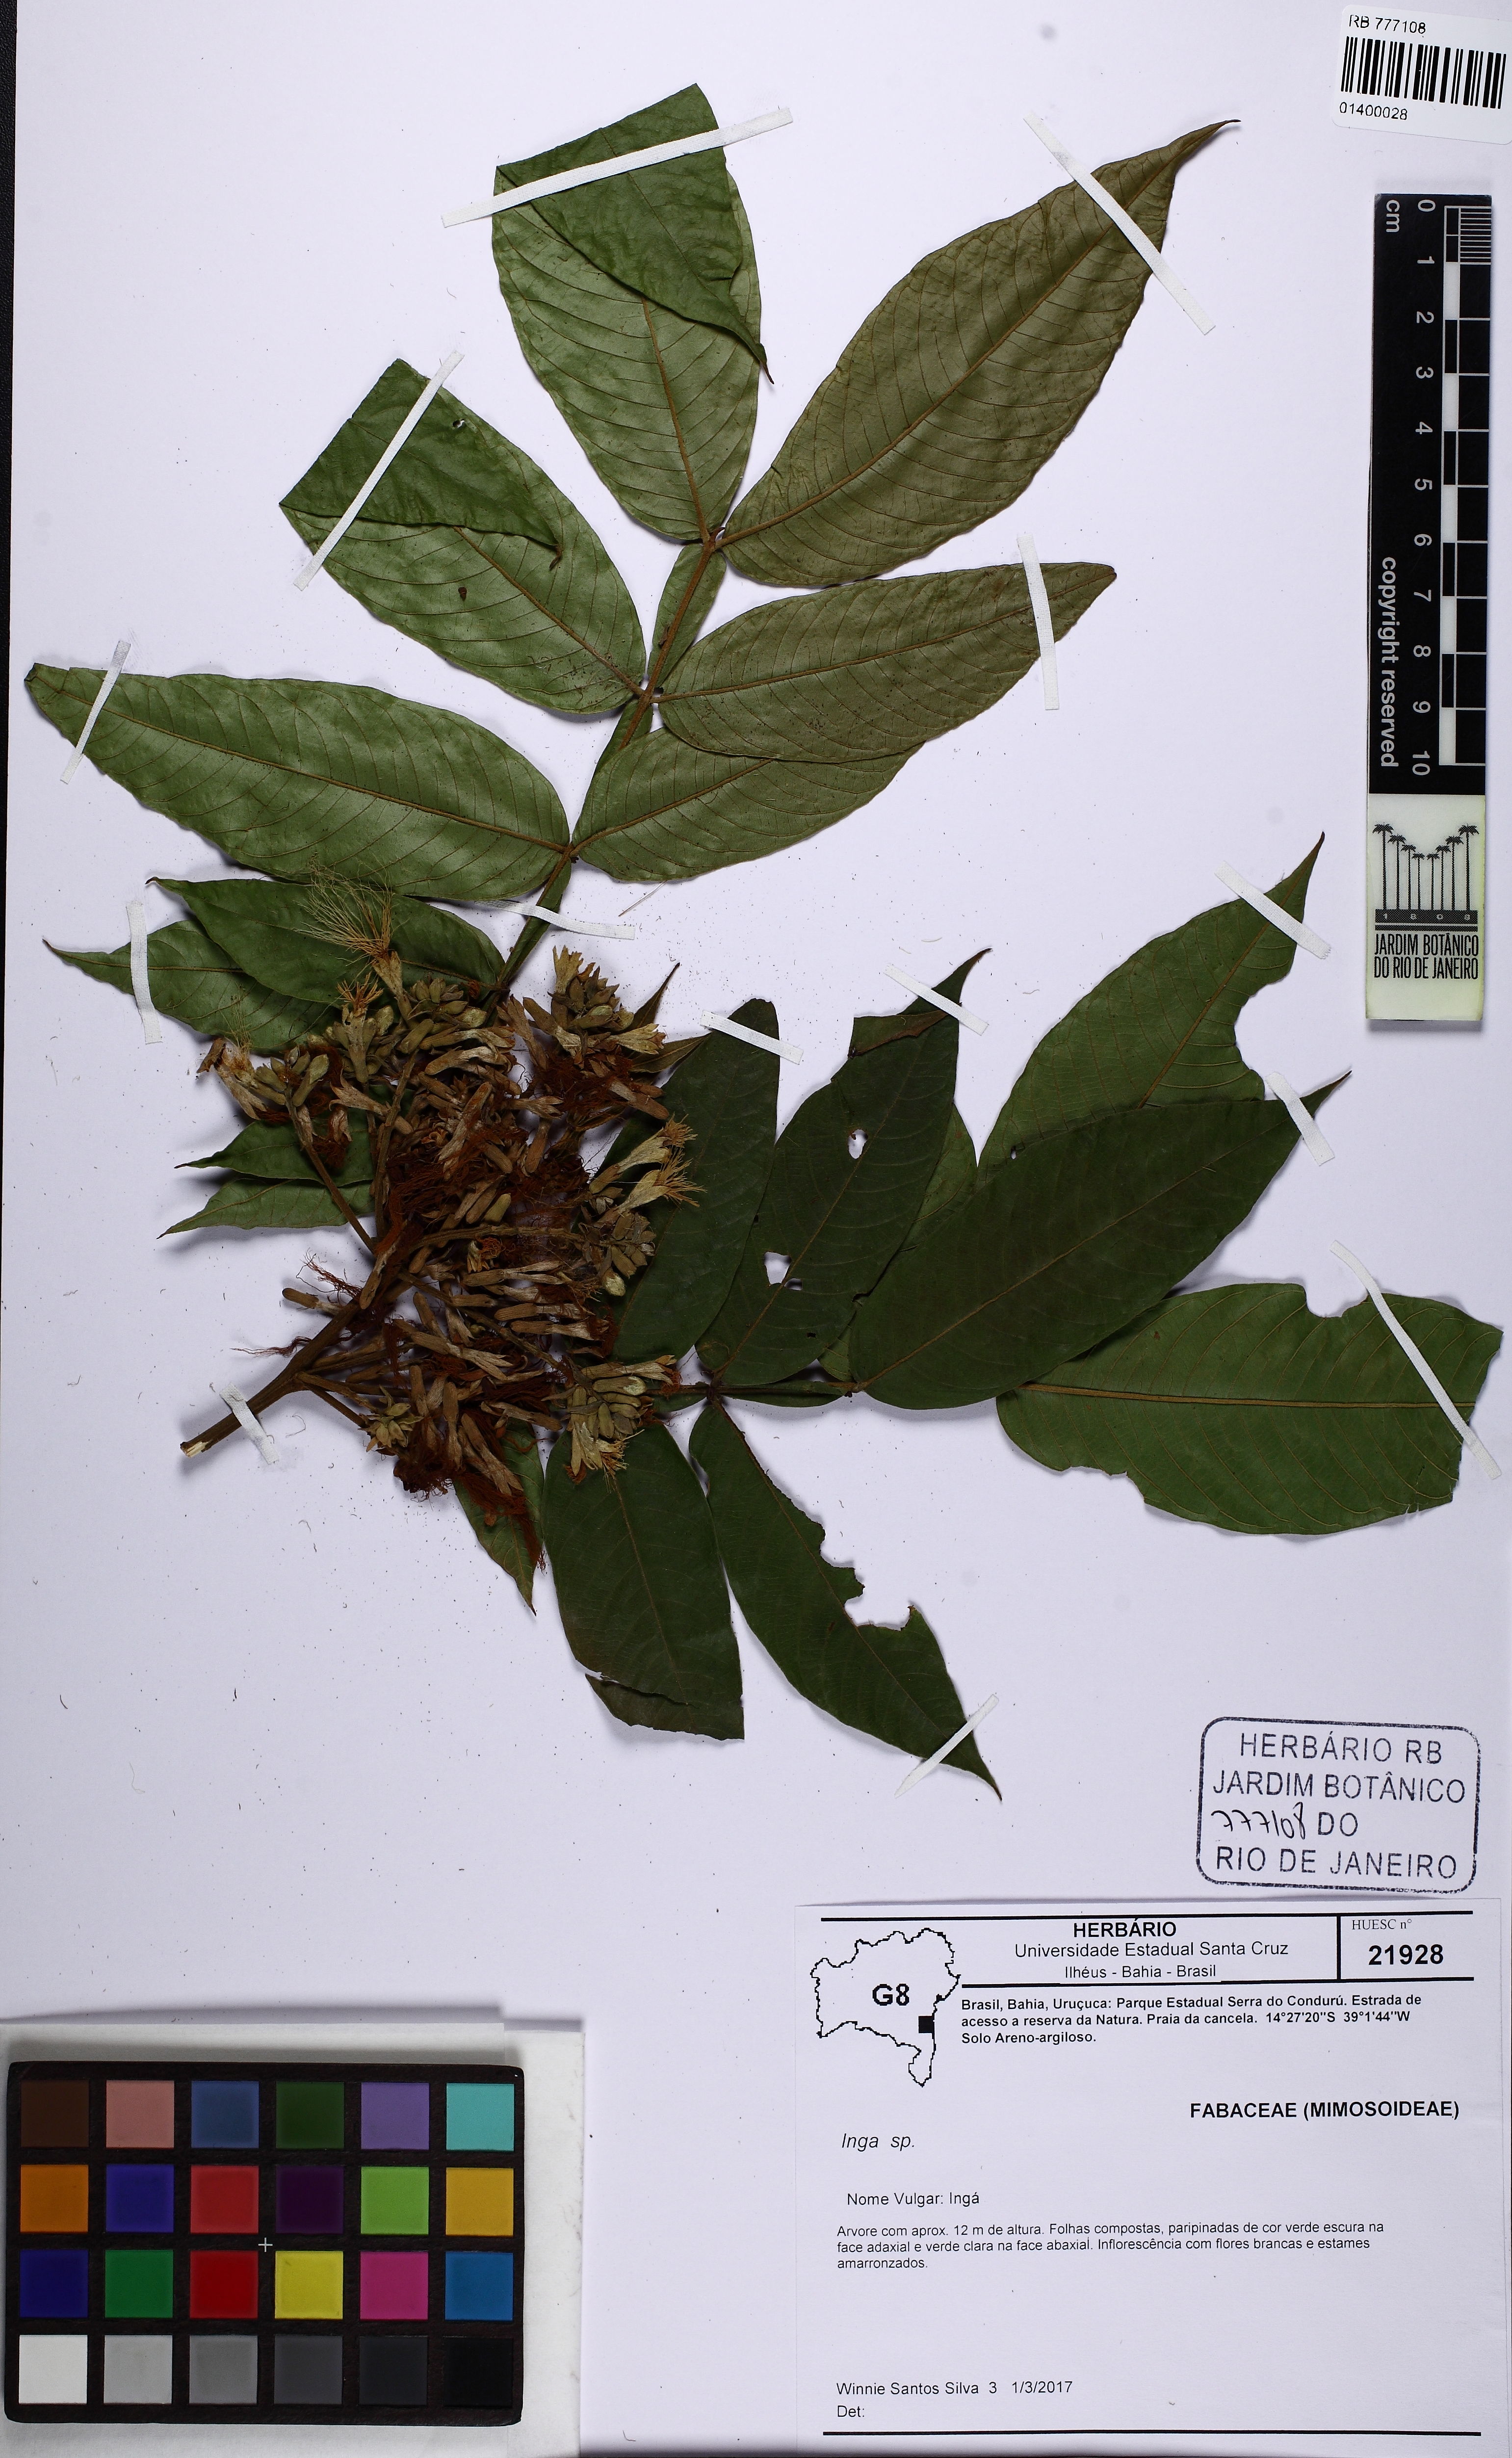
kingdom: Plantae
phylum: Tracheophyta
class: Magnoliopsida
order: Fabales
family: Fabaceae
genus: Inga
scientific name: Inga
